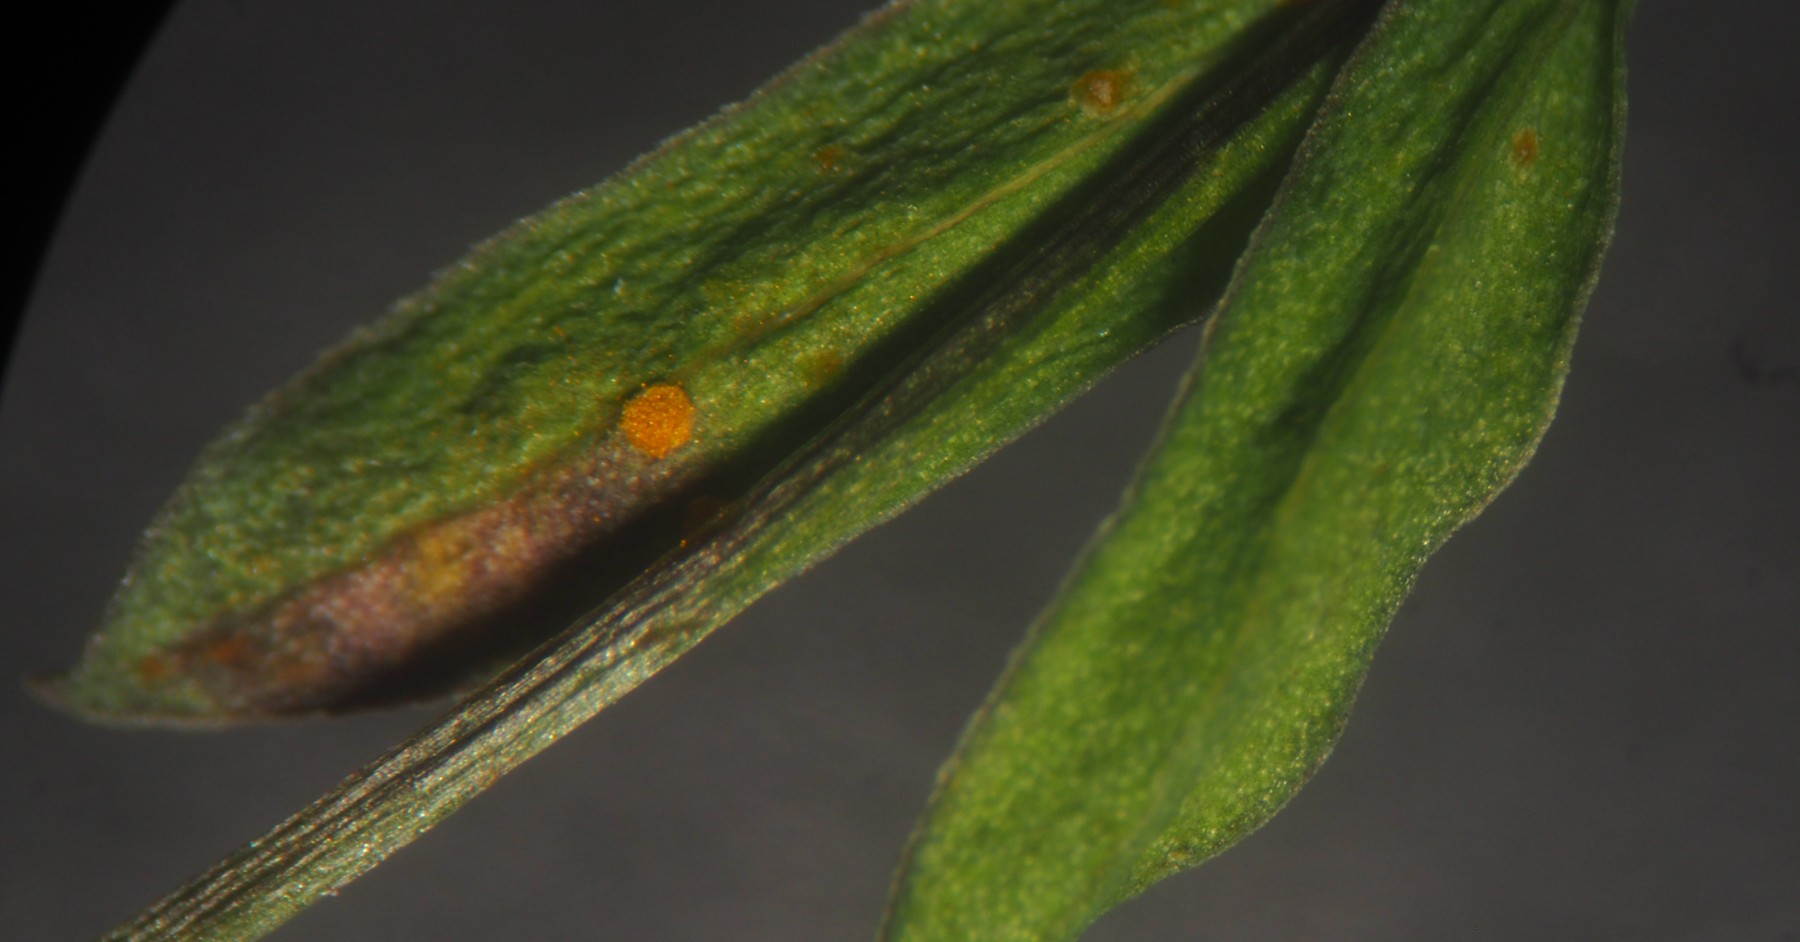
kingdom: Fungi
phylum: Basidiomycota
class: Pucciniomycetes
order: Pucciniales
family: Melampsoraceae
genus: Melampsora
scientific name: Melampsora lini
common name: hør-skorperust
